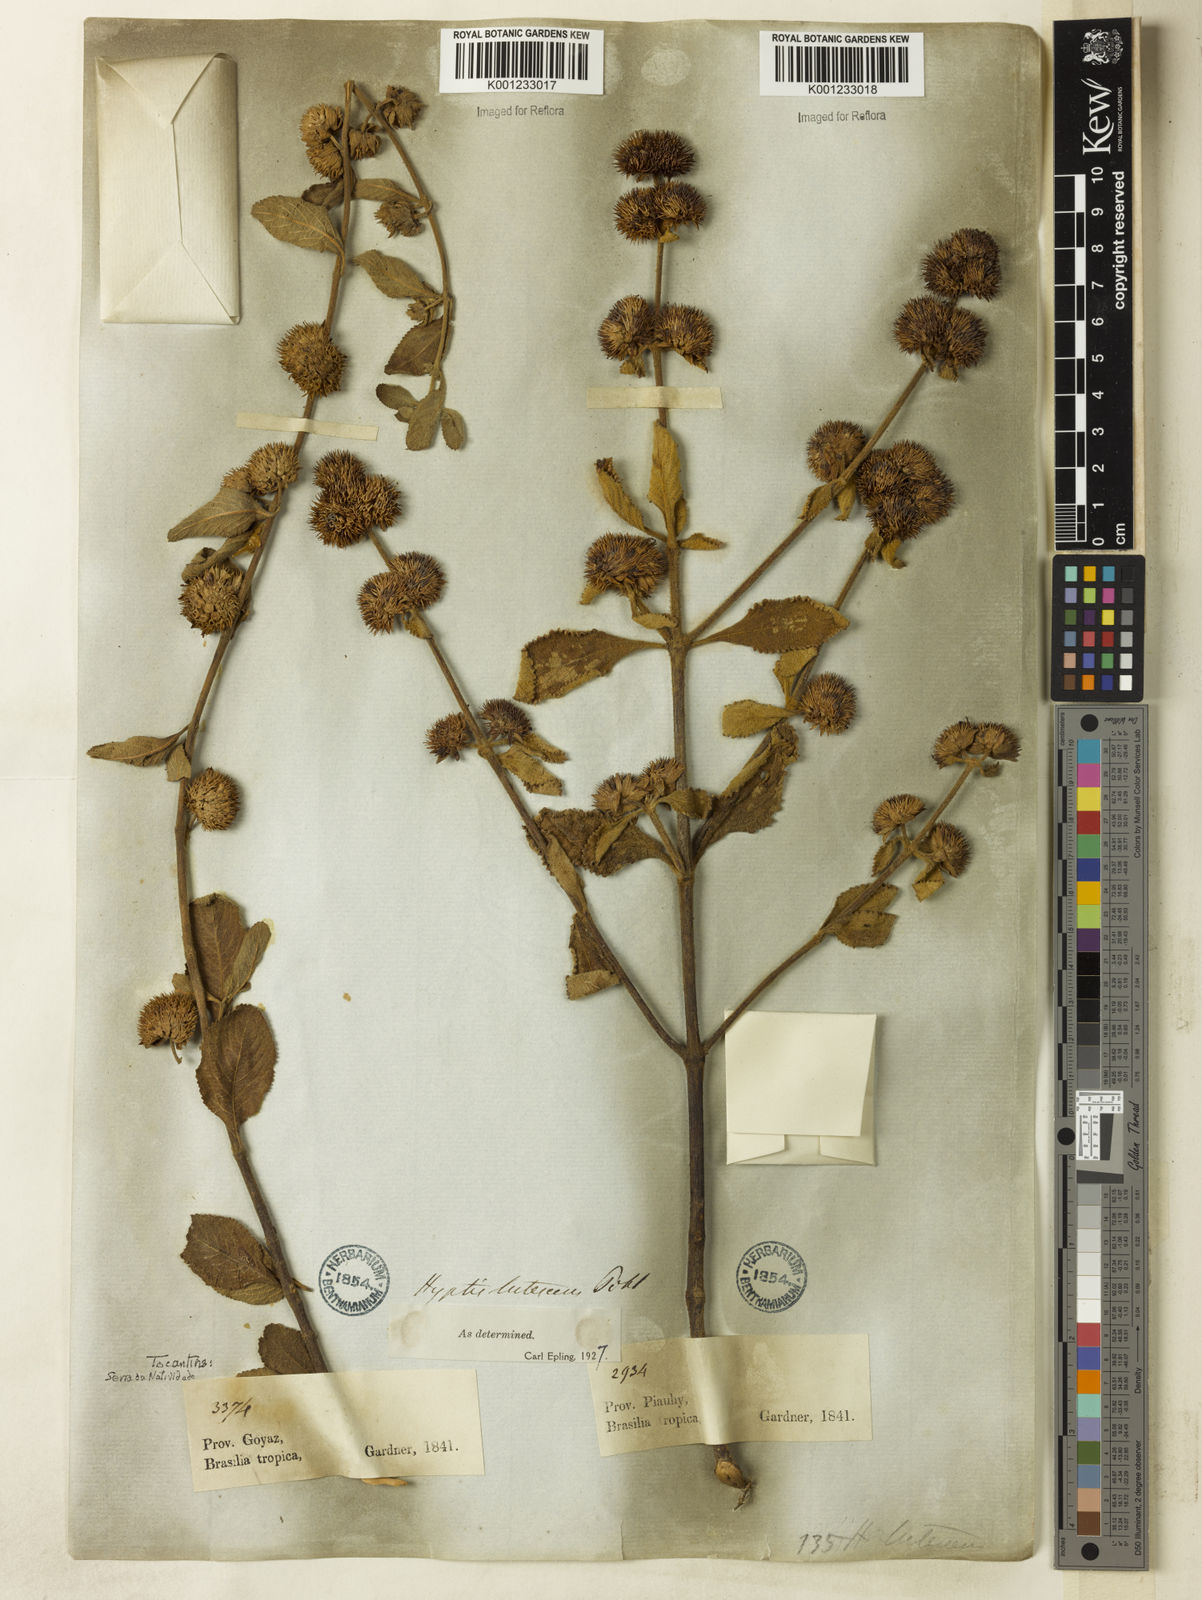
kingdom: Plantae
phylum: Tracheophyta
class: Magnoliopsida
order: Lamiales
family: Lamiaceae
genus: Hyptis
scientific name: Hyptis lutescens
